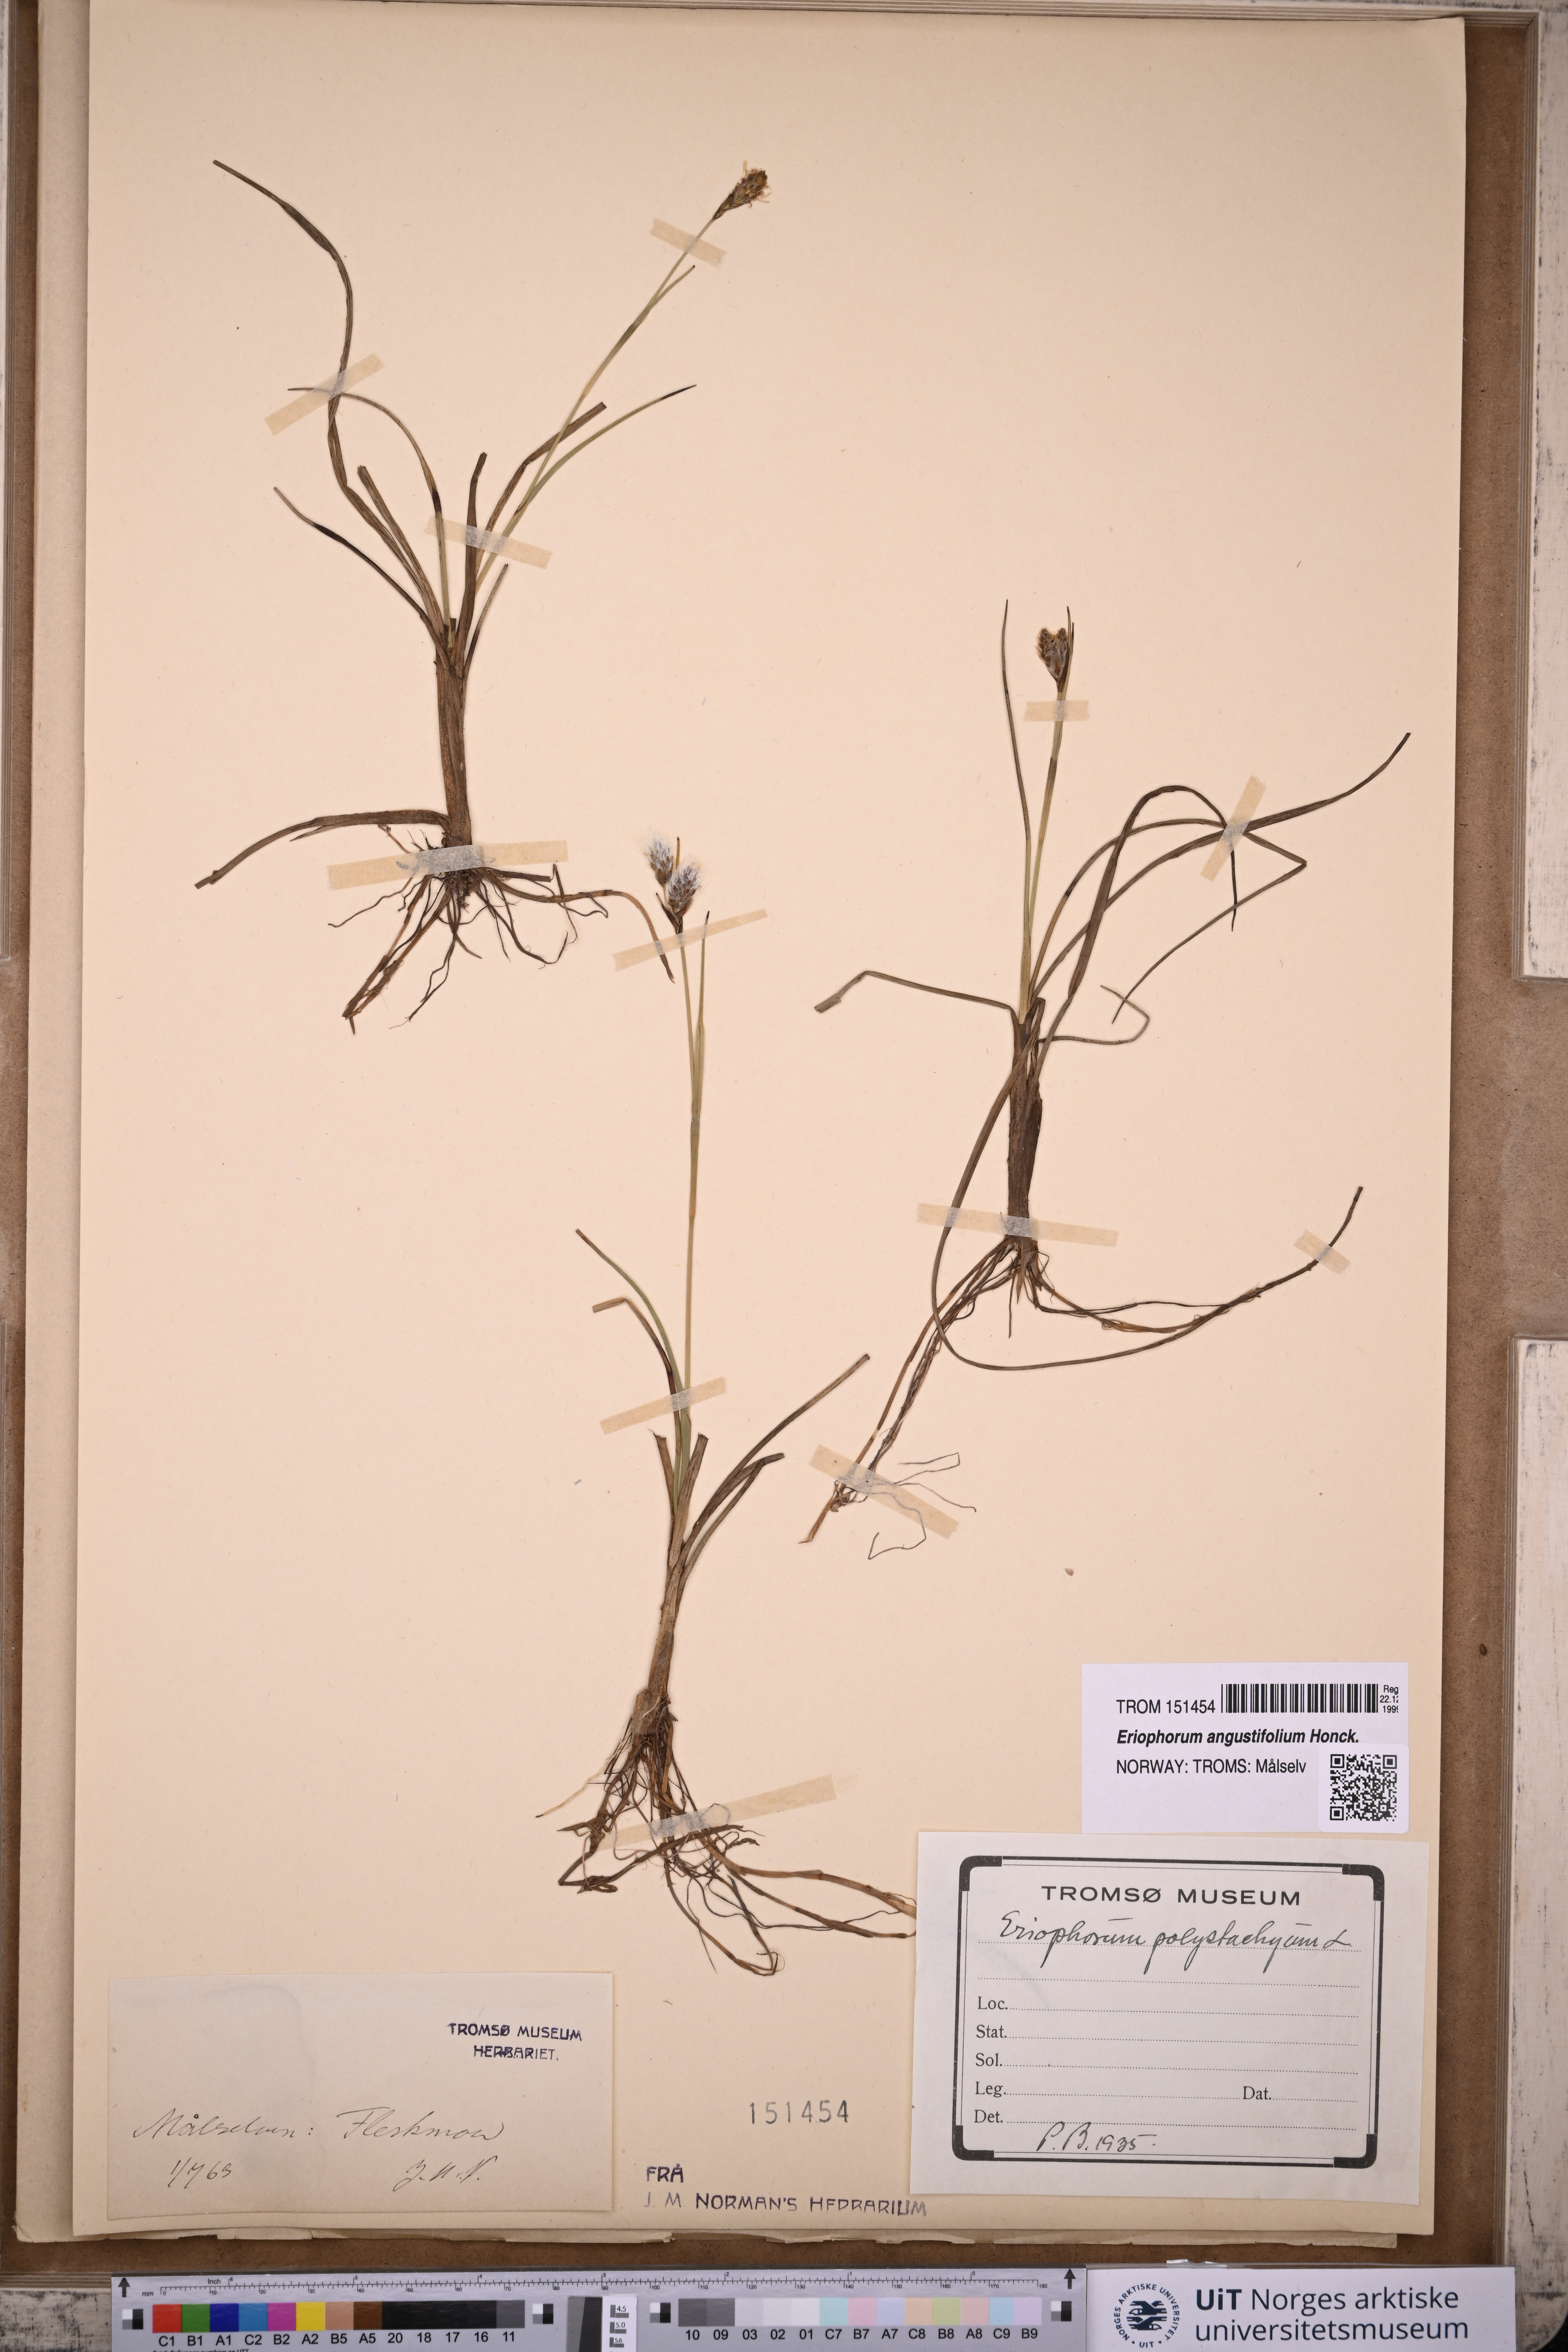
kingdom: Plantae
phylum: Tracheophyta
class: Liliopsida
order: Poales
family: Cyperaceae
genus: Eriophorum
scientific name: Eriophorum angustifolium
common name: Common cottongrass
